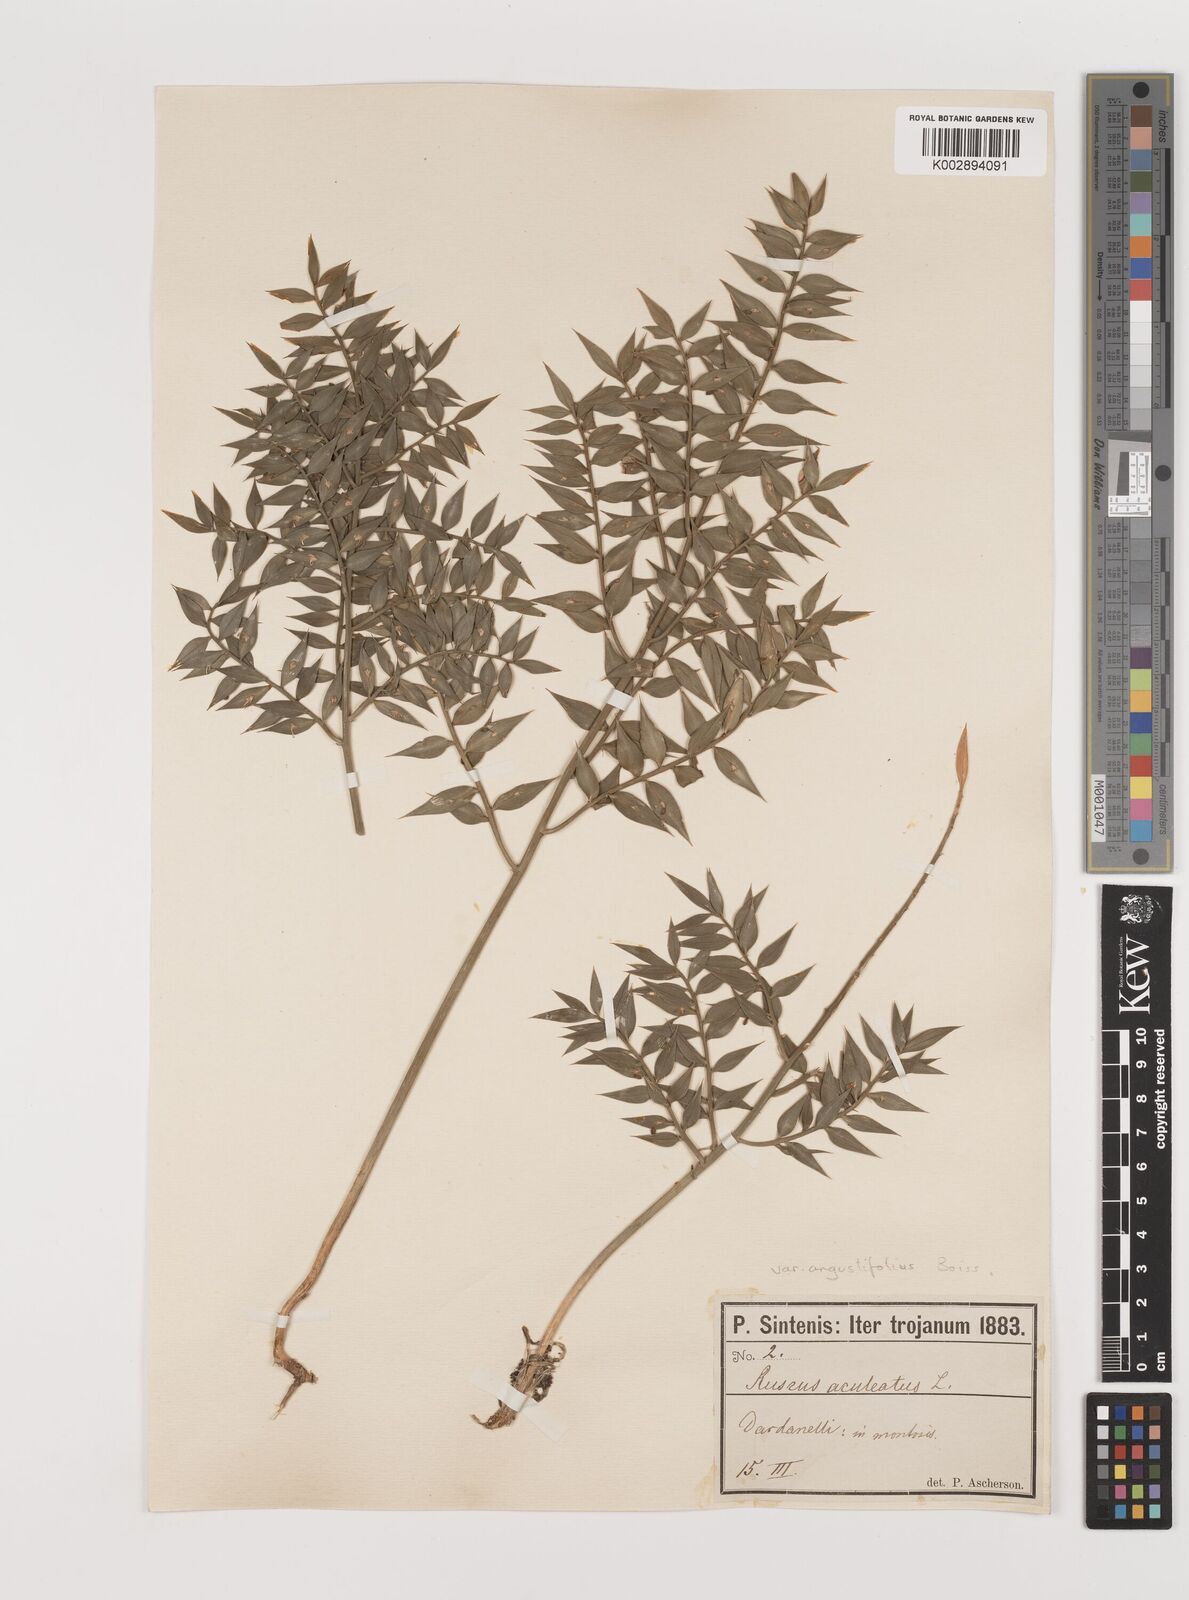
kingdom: Plantae
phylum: Tracheophyta
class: Liliopsida
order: Asparagales
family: Asparagaceae
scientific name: Asparagaceae
